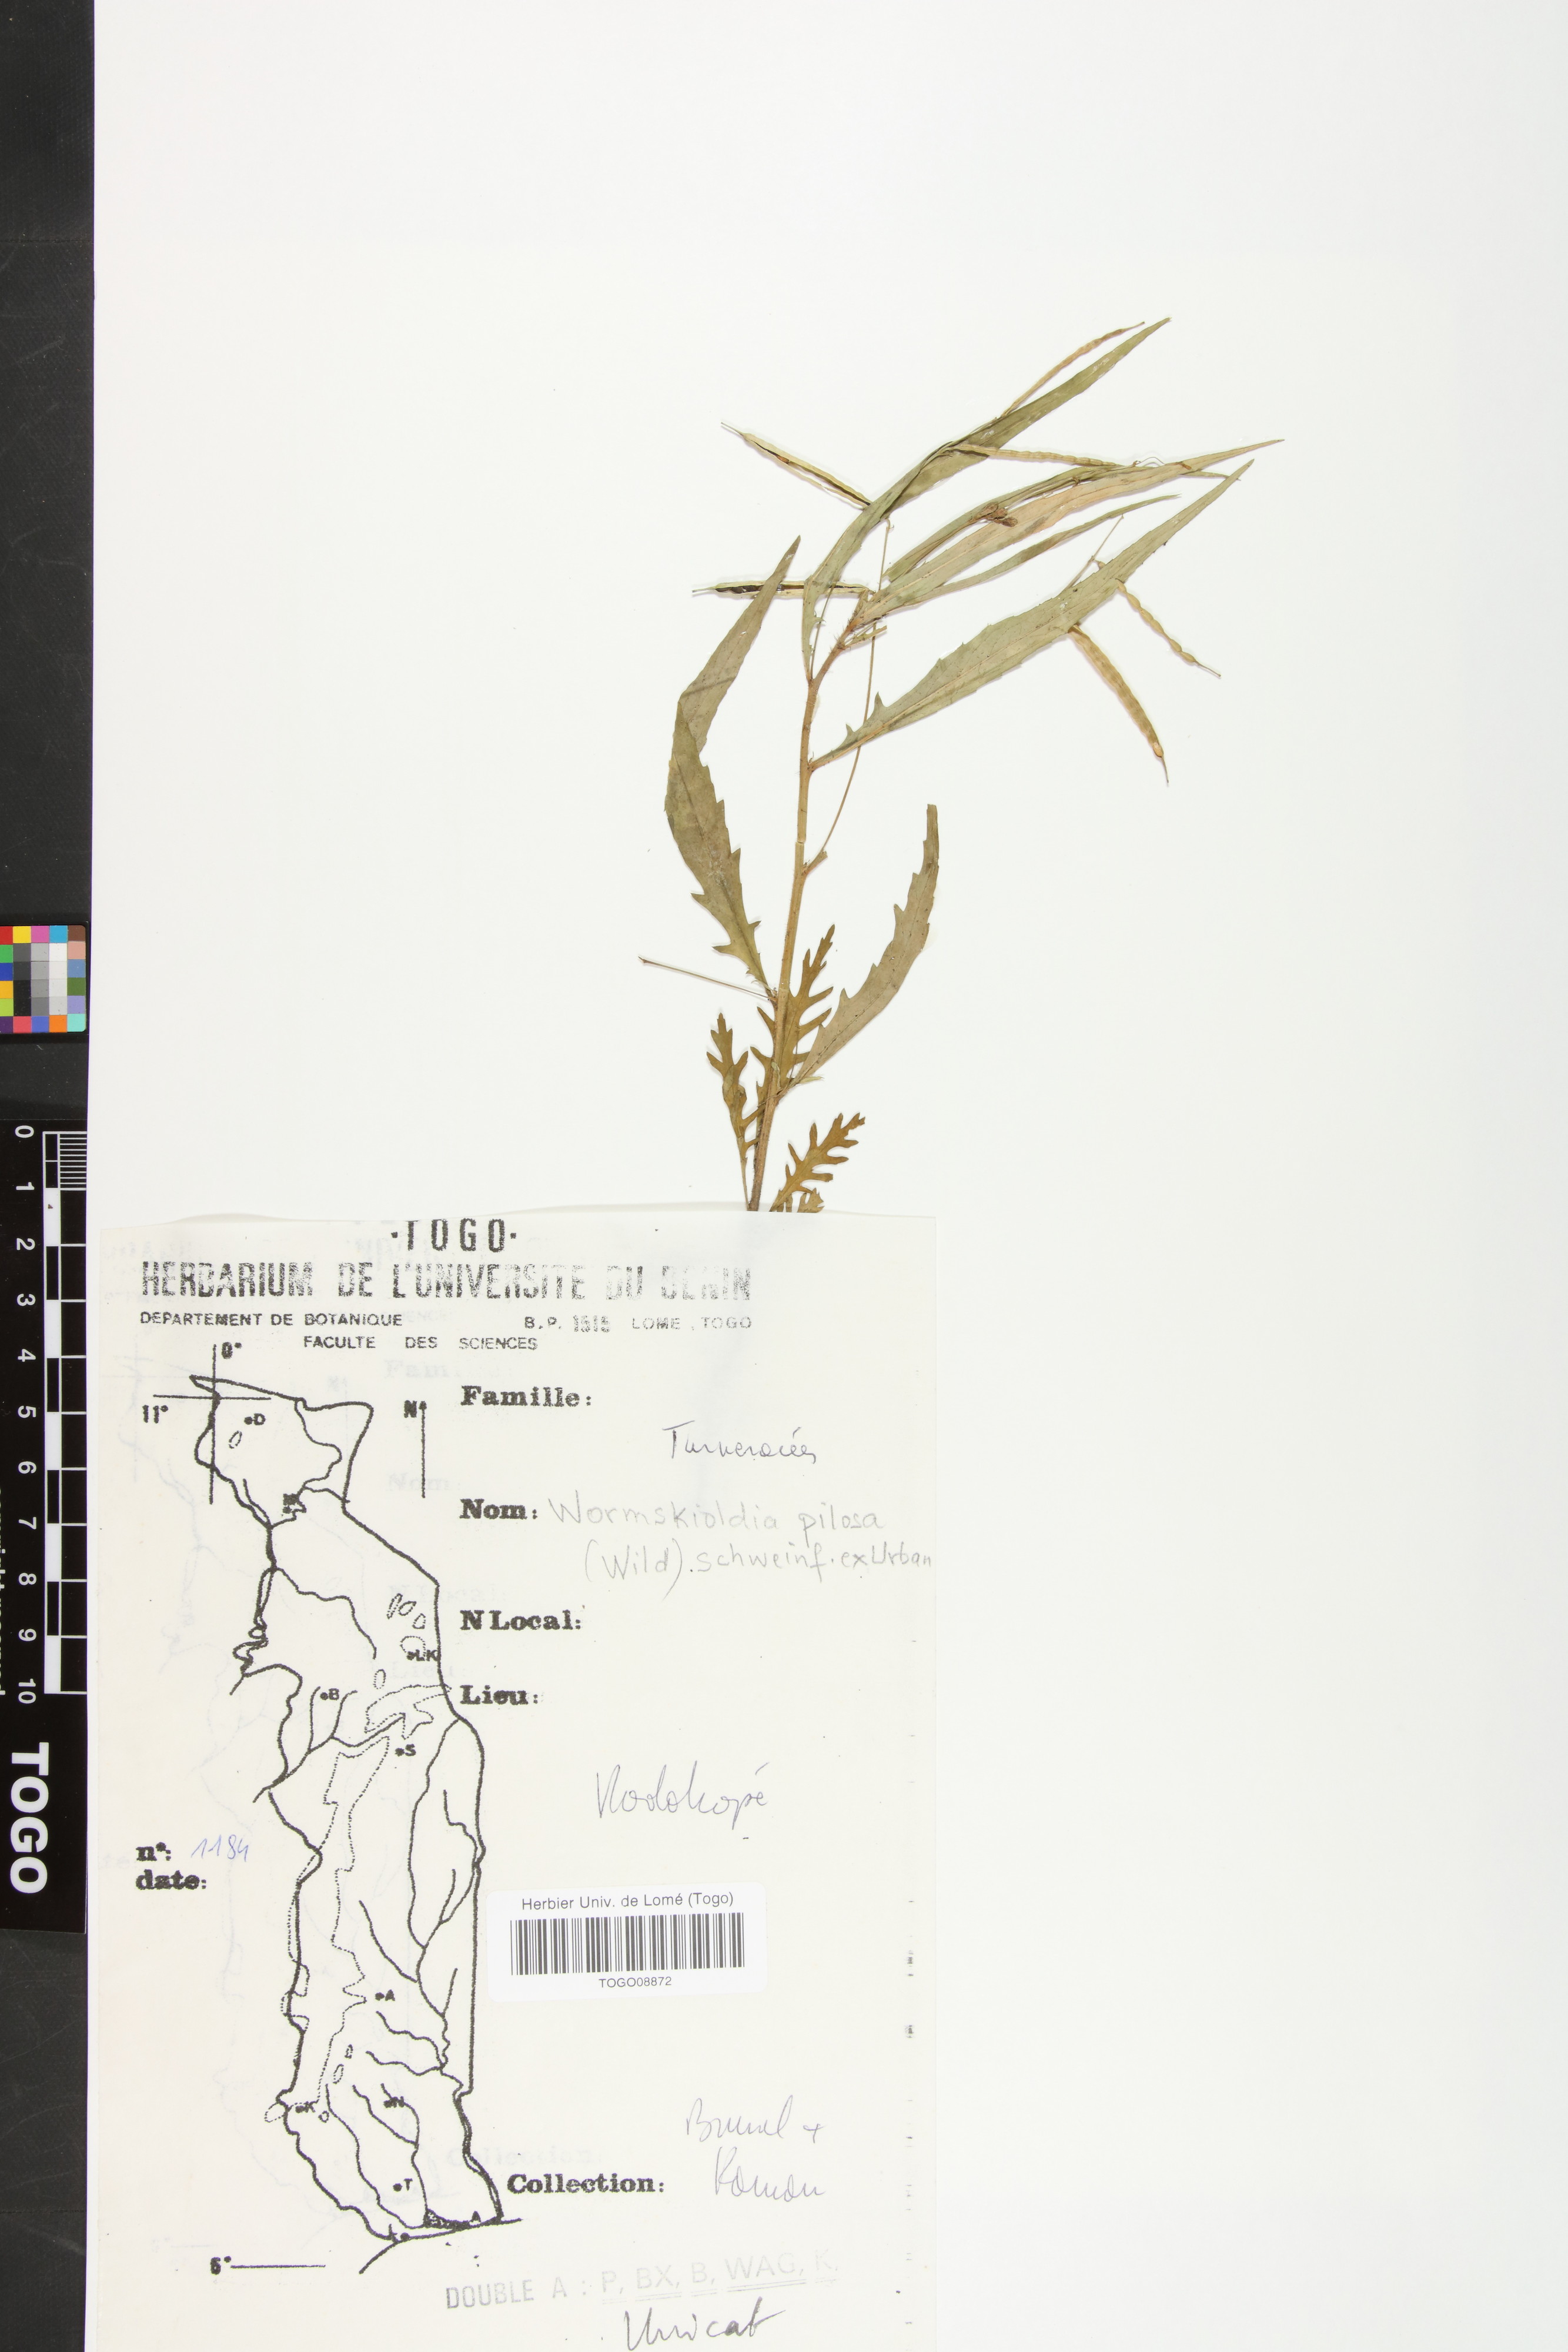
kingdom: Plantae
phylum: Tracheophyta
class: Magnoliopsida
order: Malpighiales
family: Turneraceae
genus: Tricliceras
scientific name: Tricliceras pilosum
